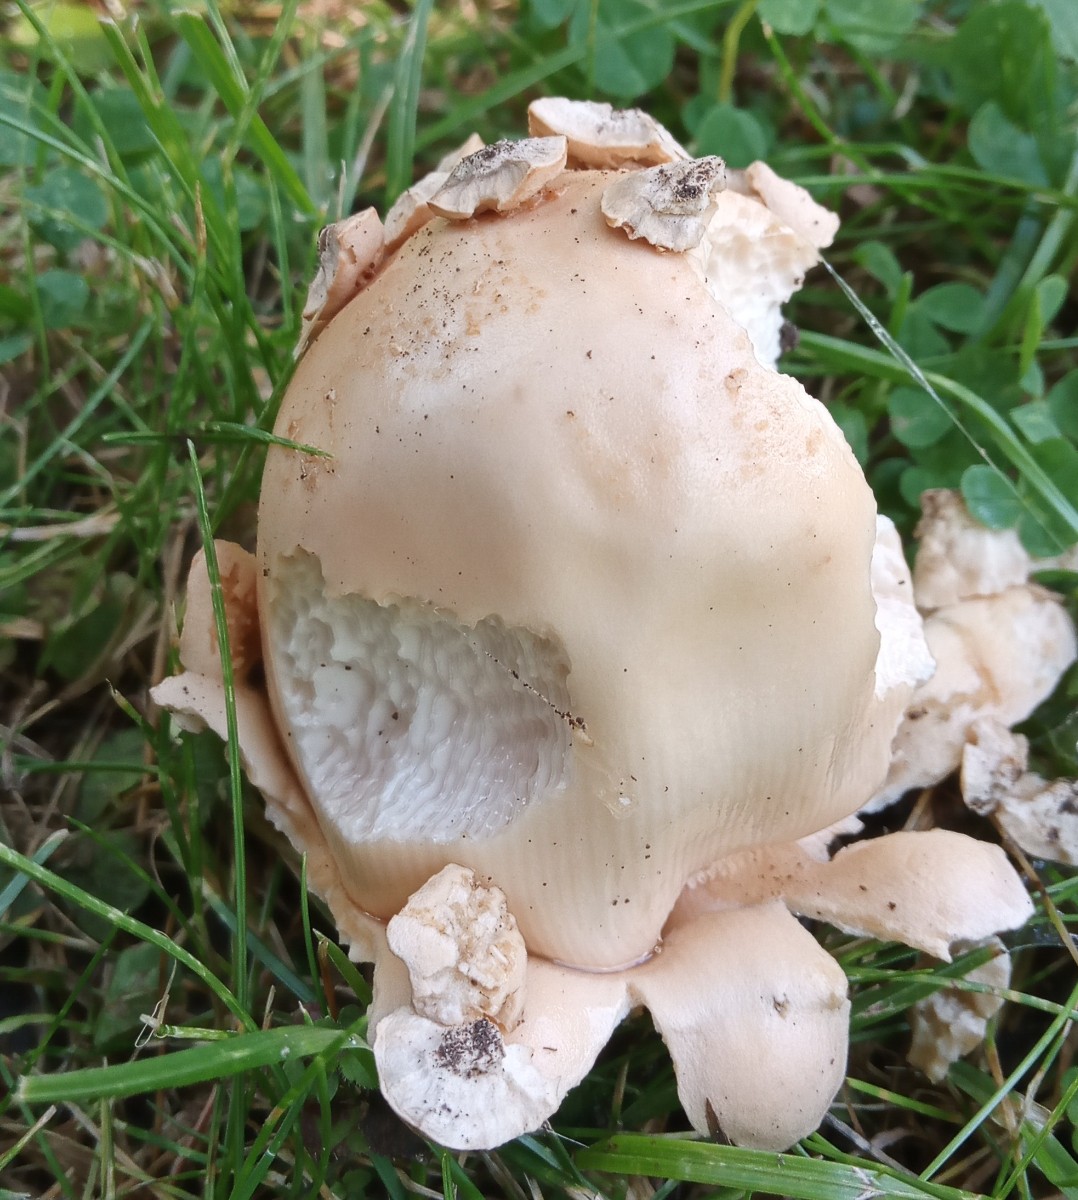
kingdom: Fungi
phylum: Basidiomycota
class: Agaricomycetes
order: Agaricales
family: Amanitaceae
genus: Amanita
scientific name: Amanita lividopallescens
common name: afblegende kam-fluesvamp
